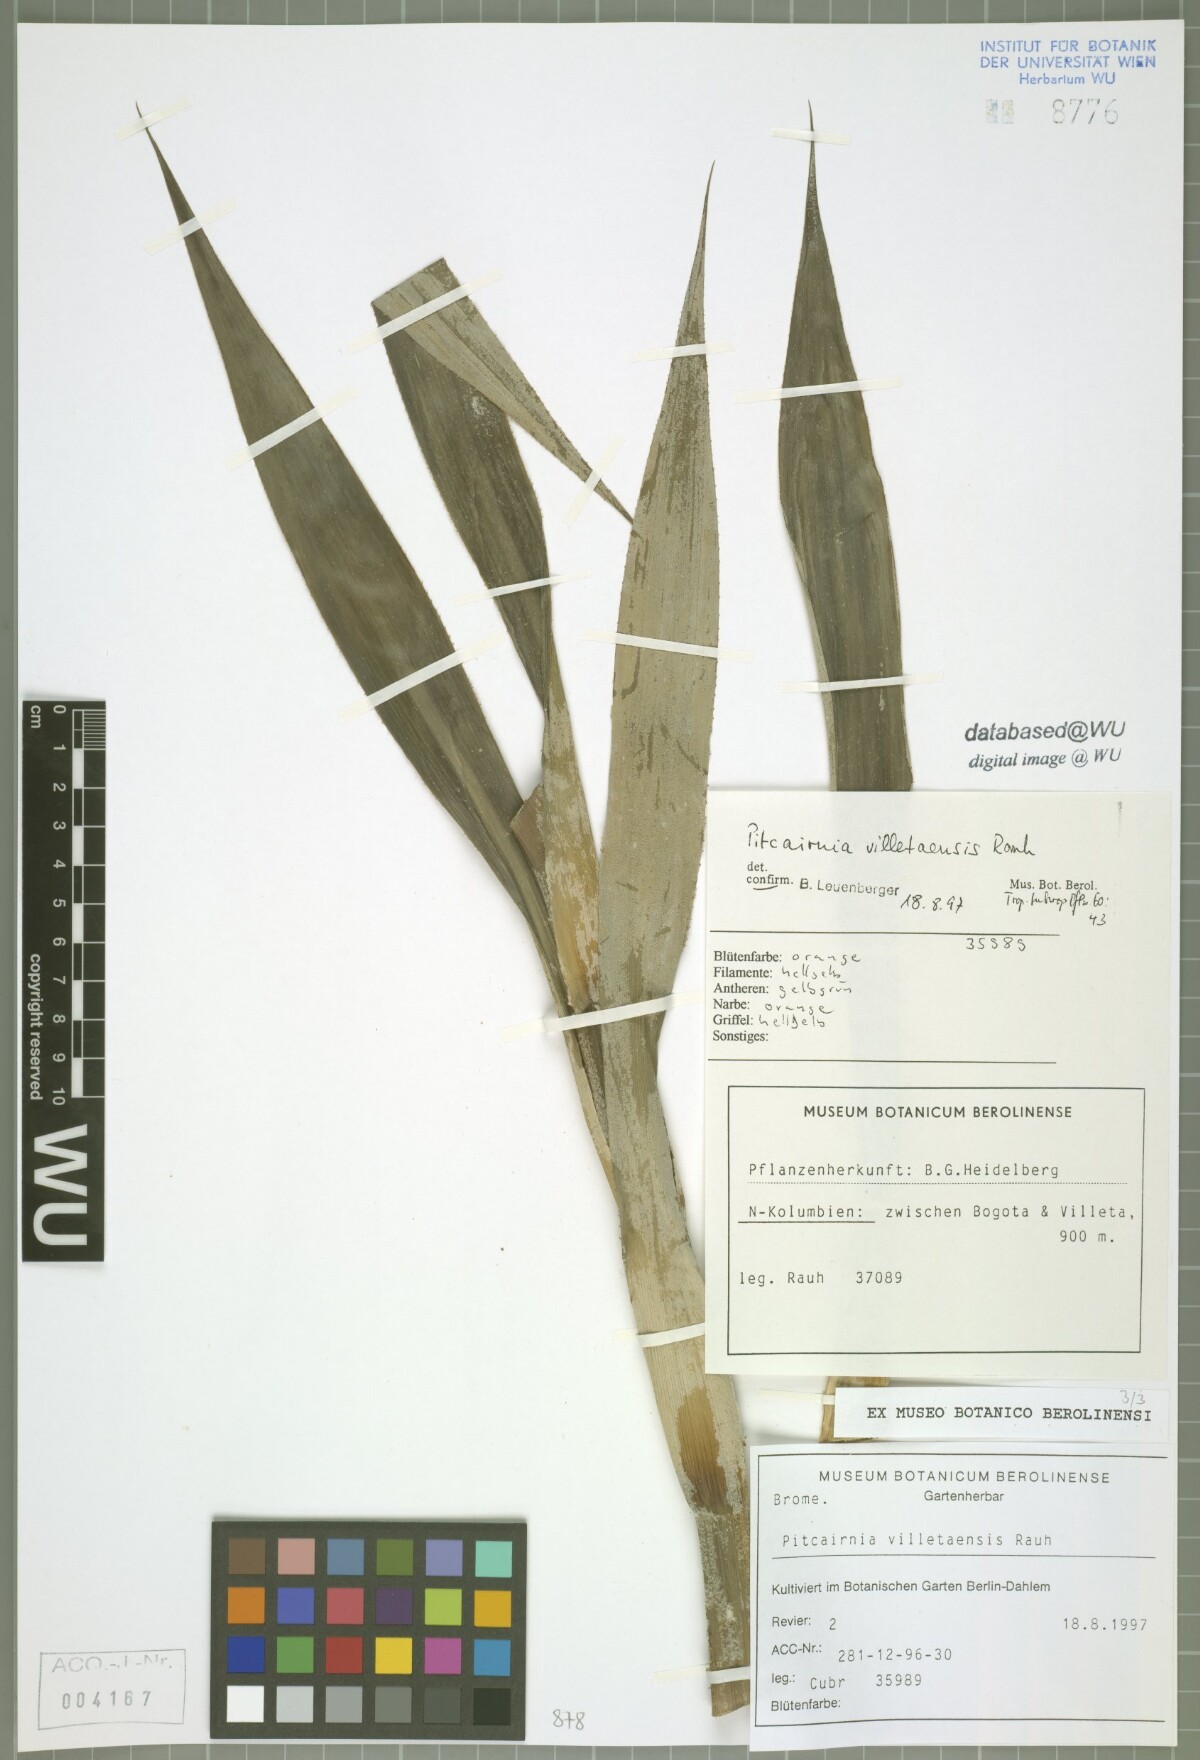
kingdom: Plantae
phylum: Tracheophyta
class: Liliopsida
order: Poales
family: Bromeliaceae
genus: Pitcairnia
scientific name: Pitcairnia villetaensis
